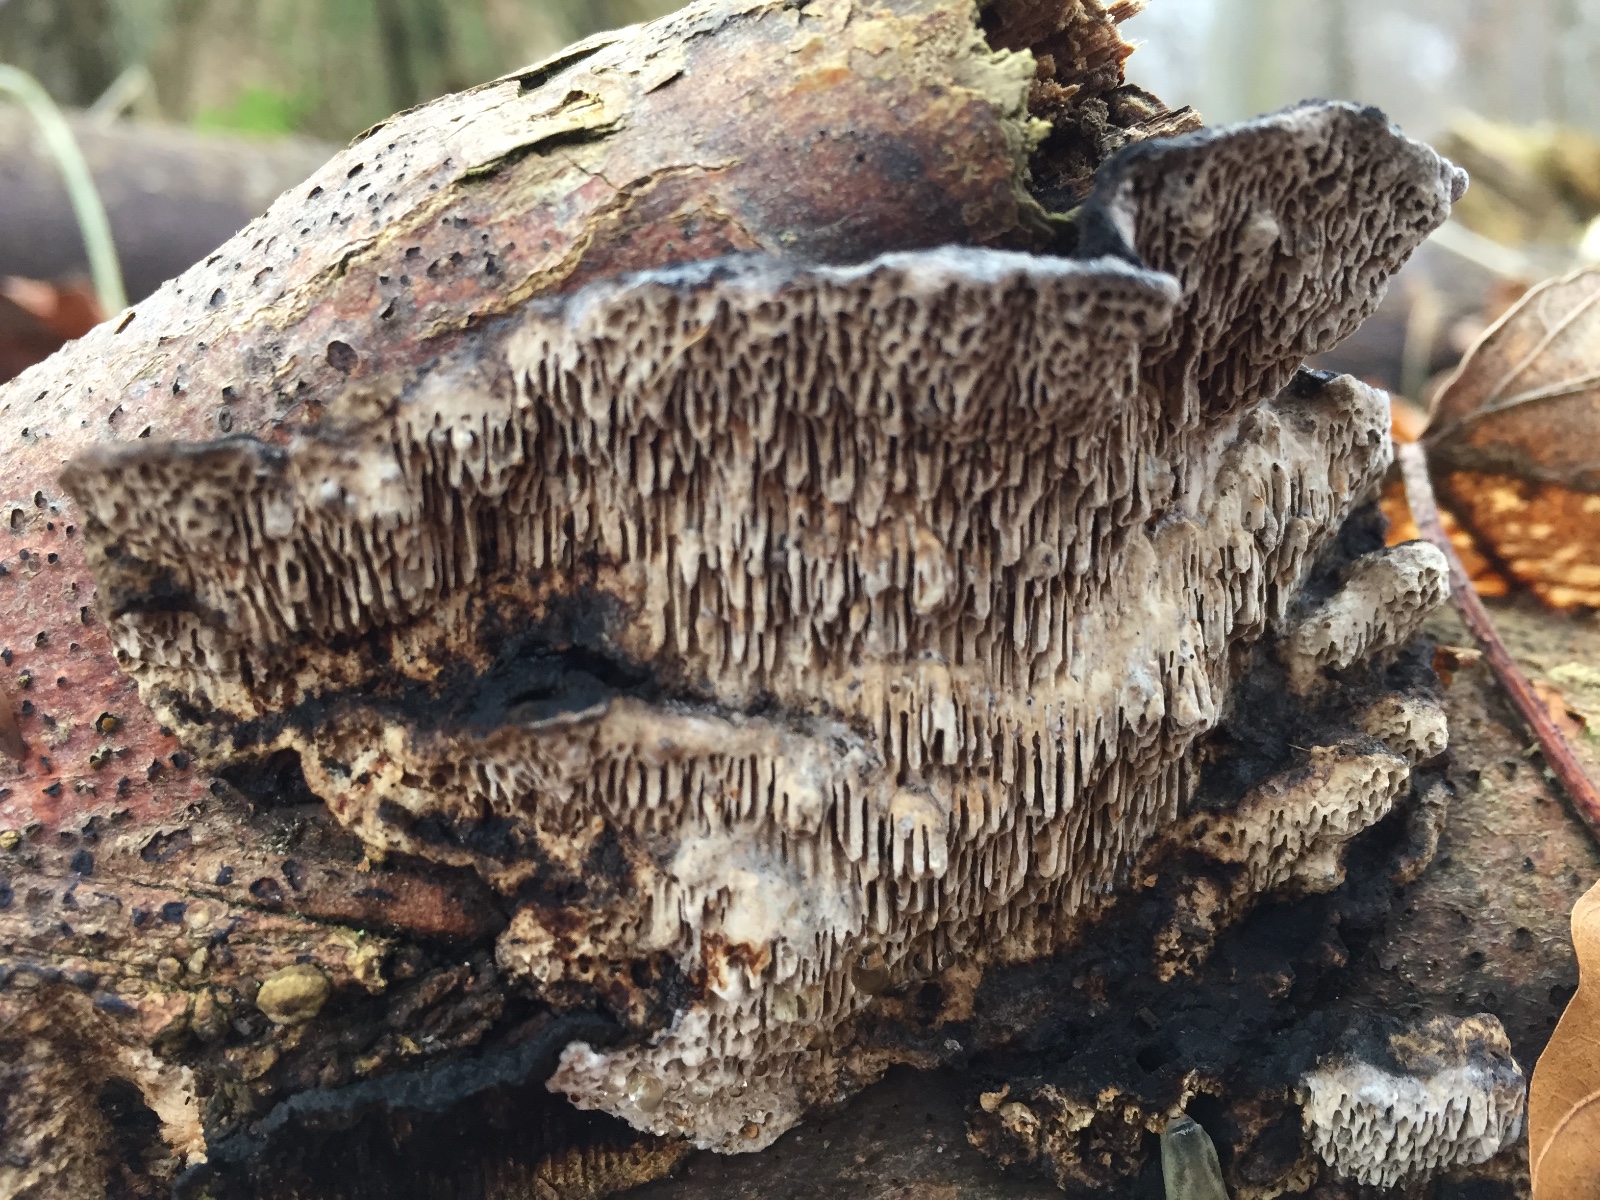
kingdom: Fungi
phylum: Basidiomycota
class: Agaricomycetes
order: Polyporales
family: Polyporaceae
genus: Podofomes
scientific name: Podofomes mollis
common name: blød begporesvamp
